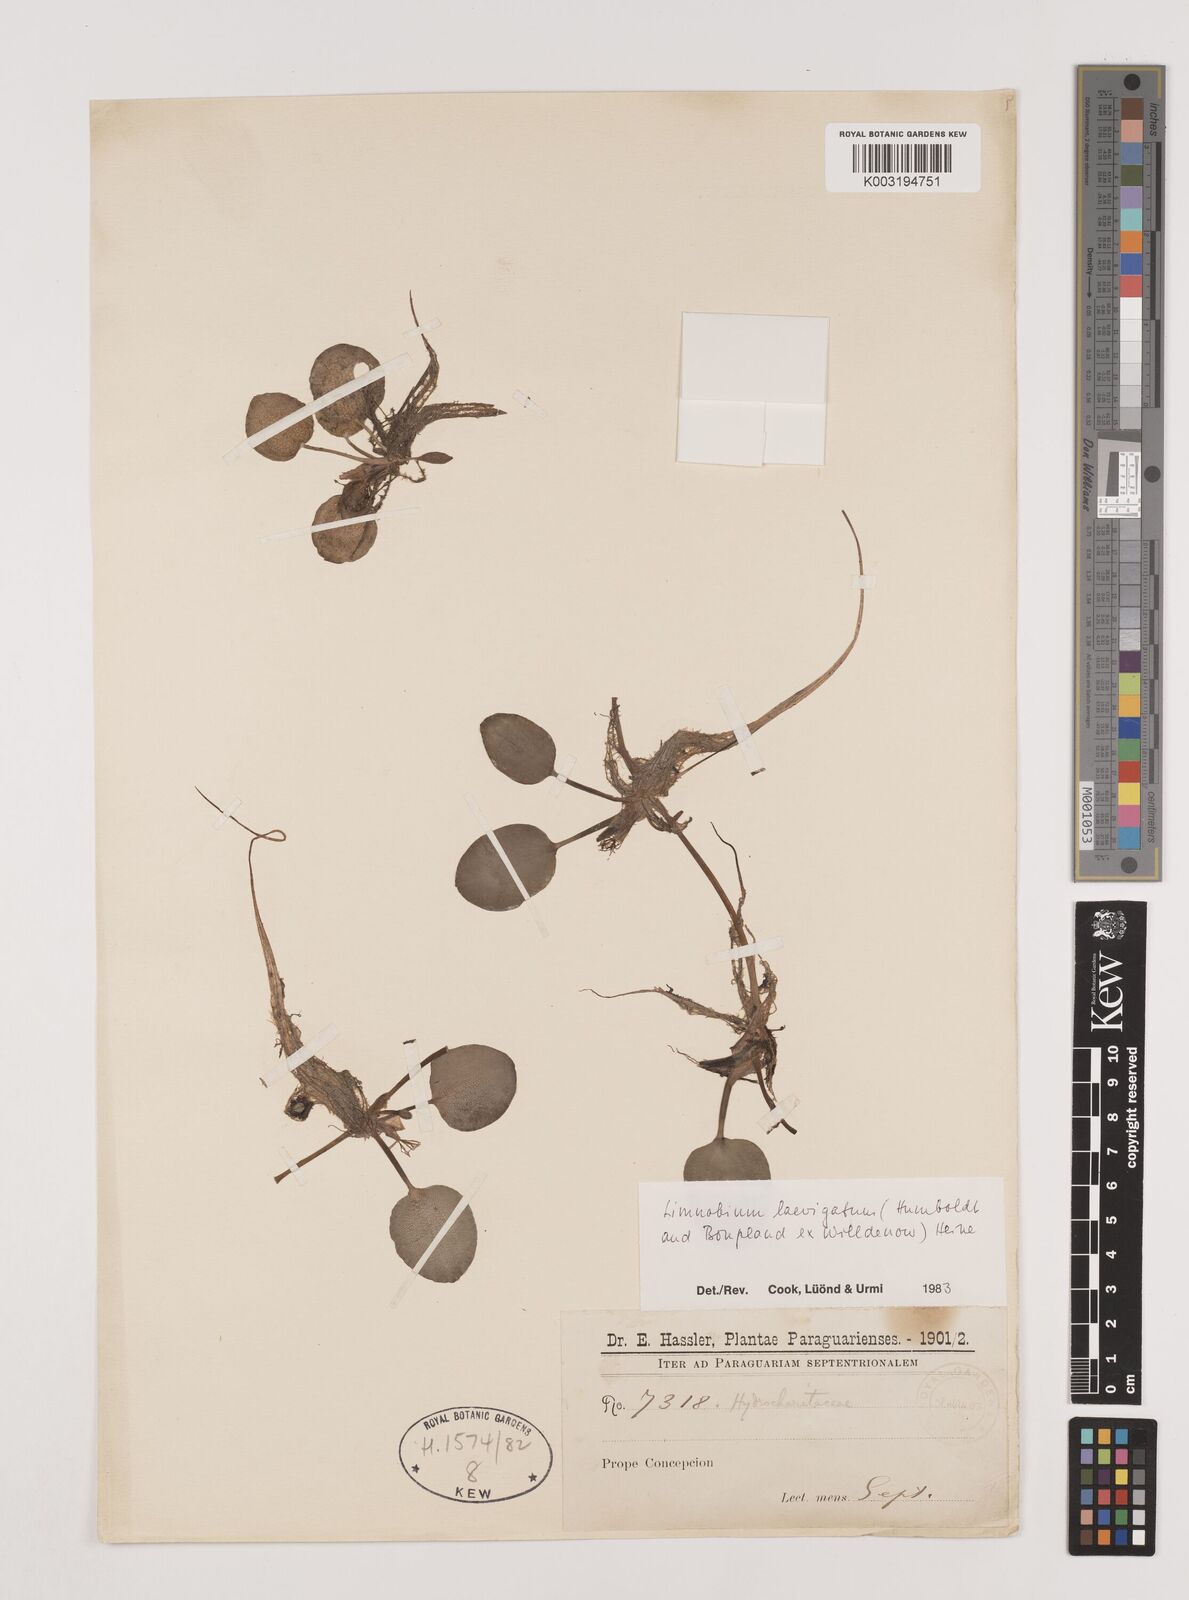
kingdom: Plantae
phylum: Tracheophyta
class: Liliopsida
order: Alismatales
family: Hydrocharitaceae
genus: Hydrocharis
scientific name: Hydrocharis laevigata
